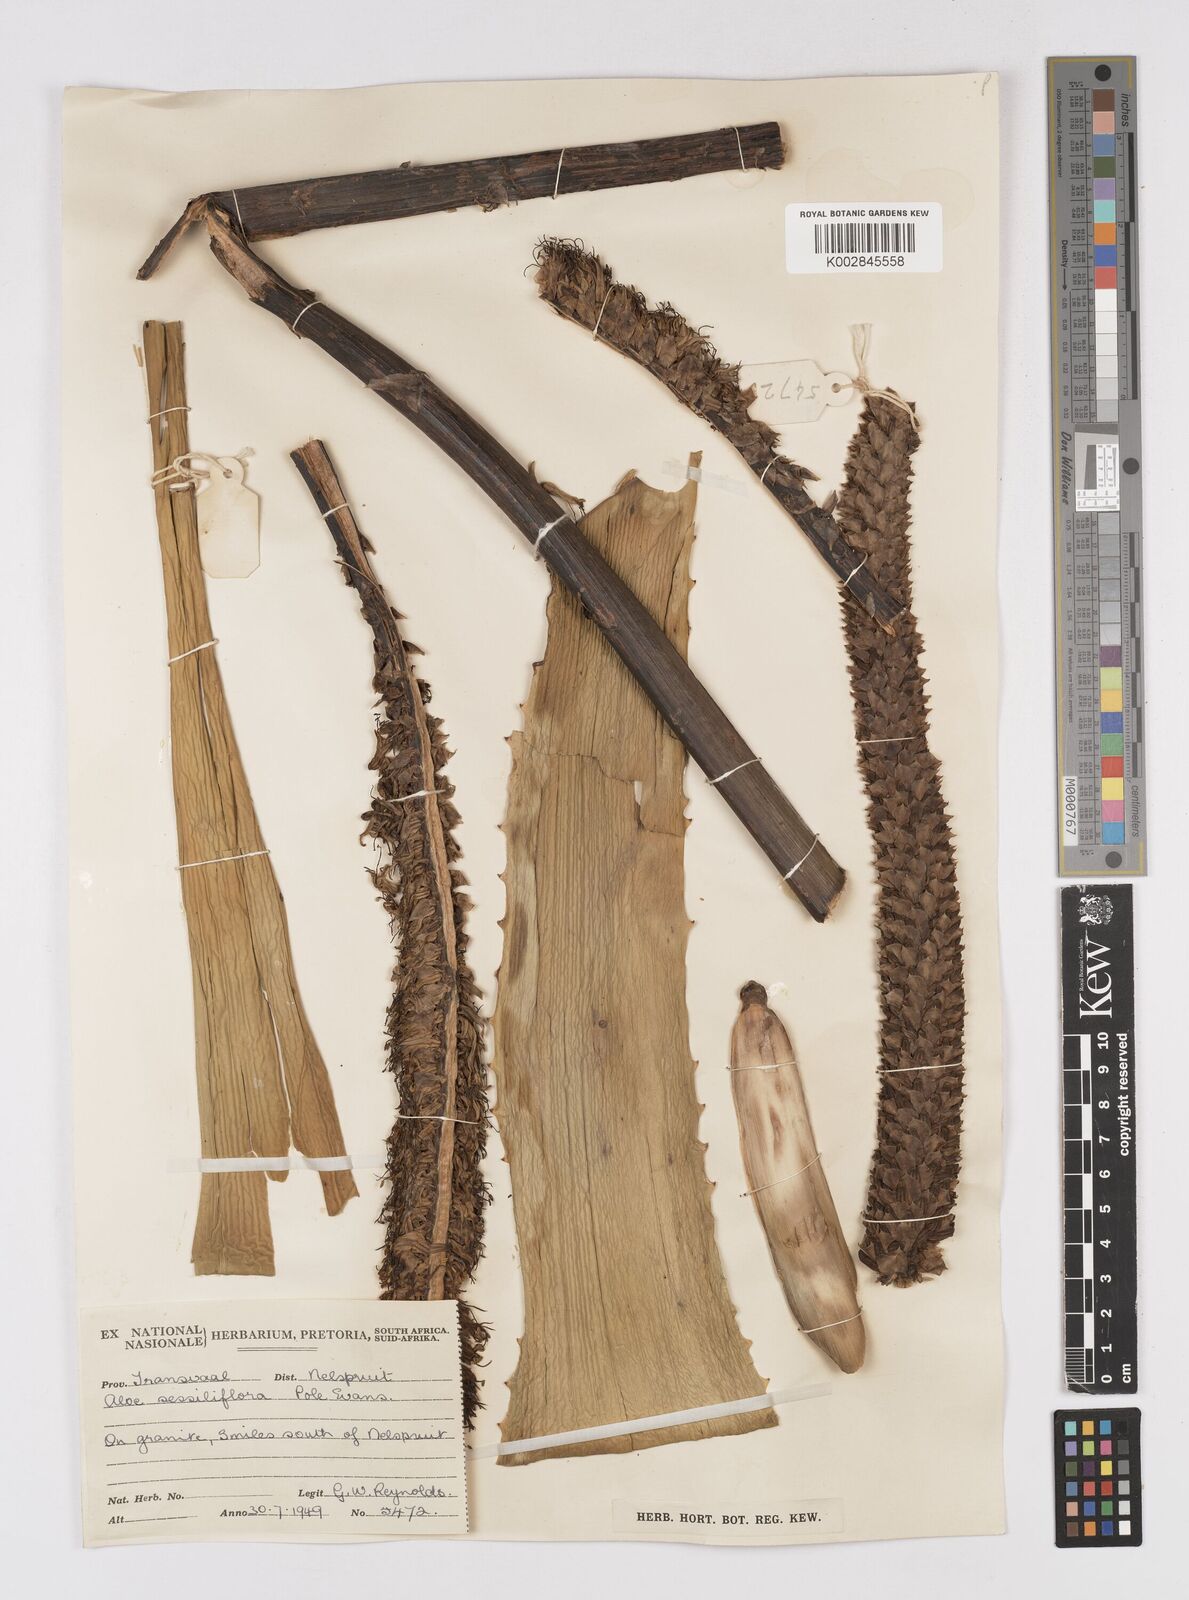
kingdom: Plantae
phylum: Tracheophyta
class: Liliopsida
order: Asparagales
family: Asphodelaceae
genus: Aloe
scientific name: Aloe spicata
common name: Gazaland aloe
